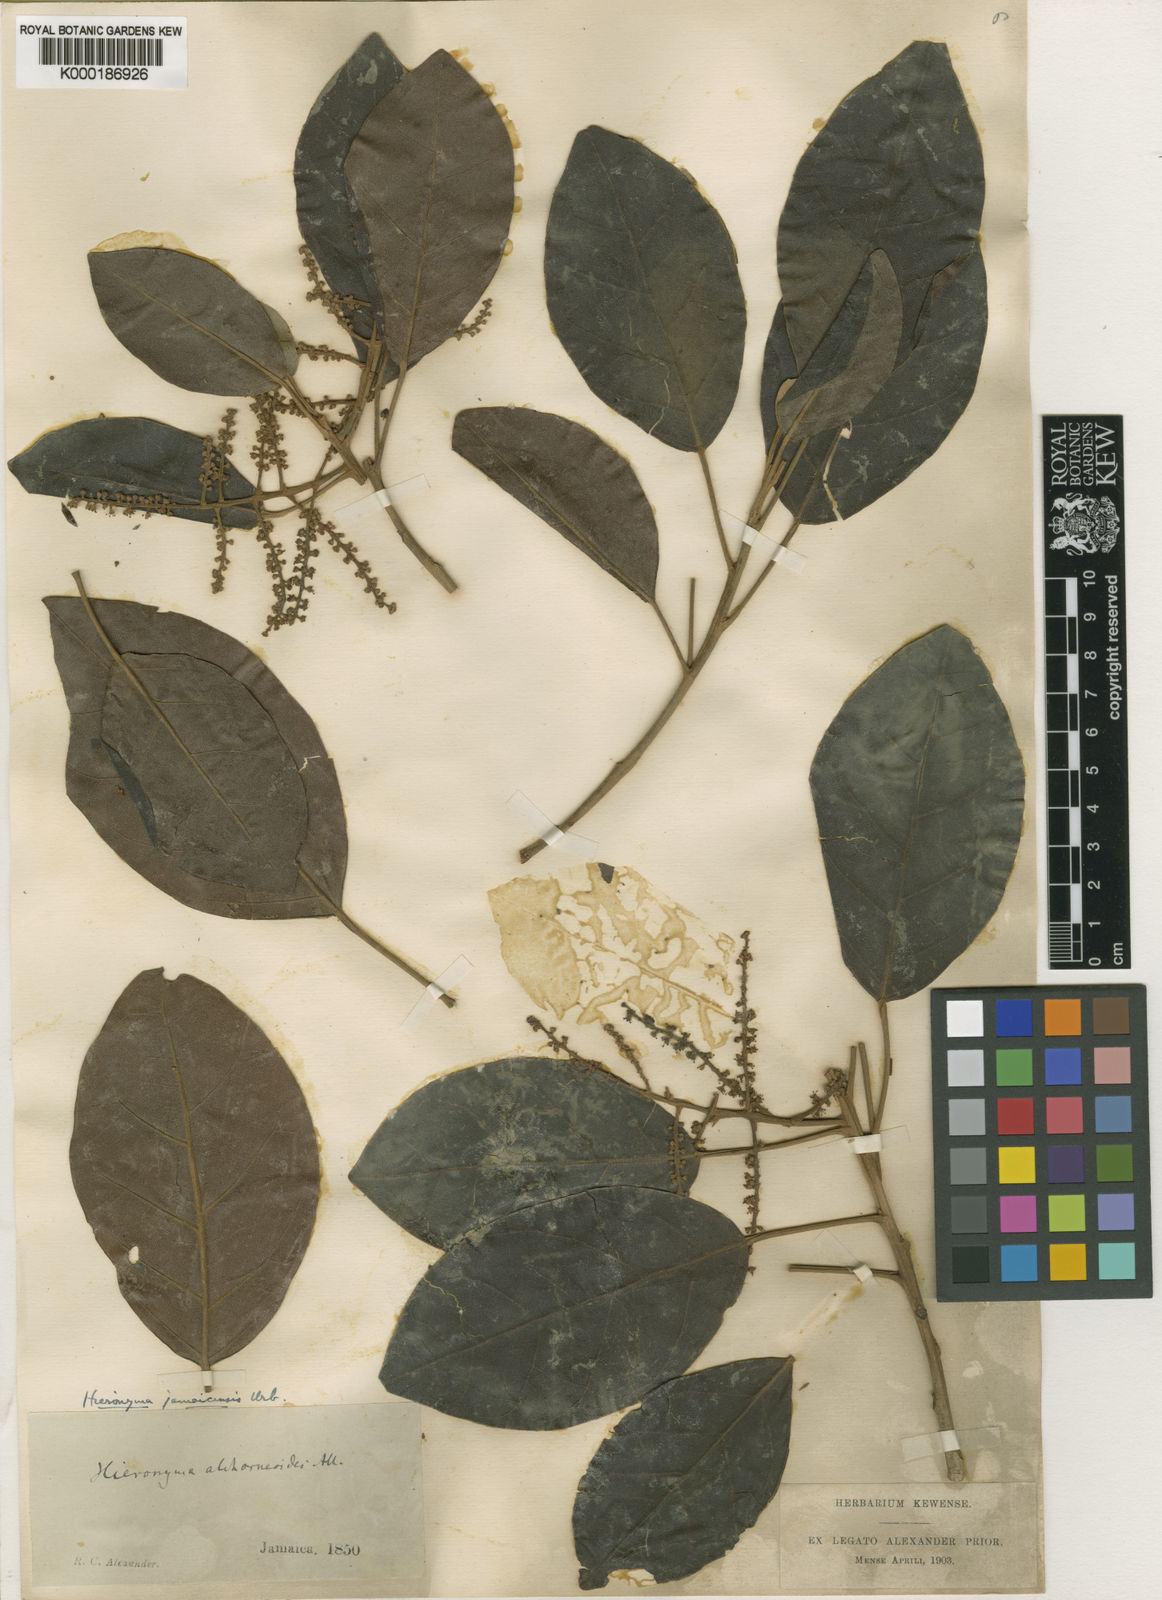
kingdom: Plantae
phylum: Tracheophyta
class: Magnoliopsida
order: Malpighiales
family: Phyllanthaceae
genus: Hieronyma
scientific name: Hieronyma jamaicensis
